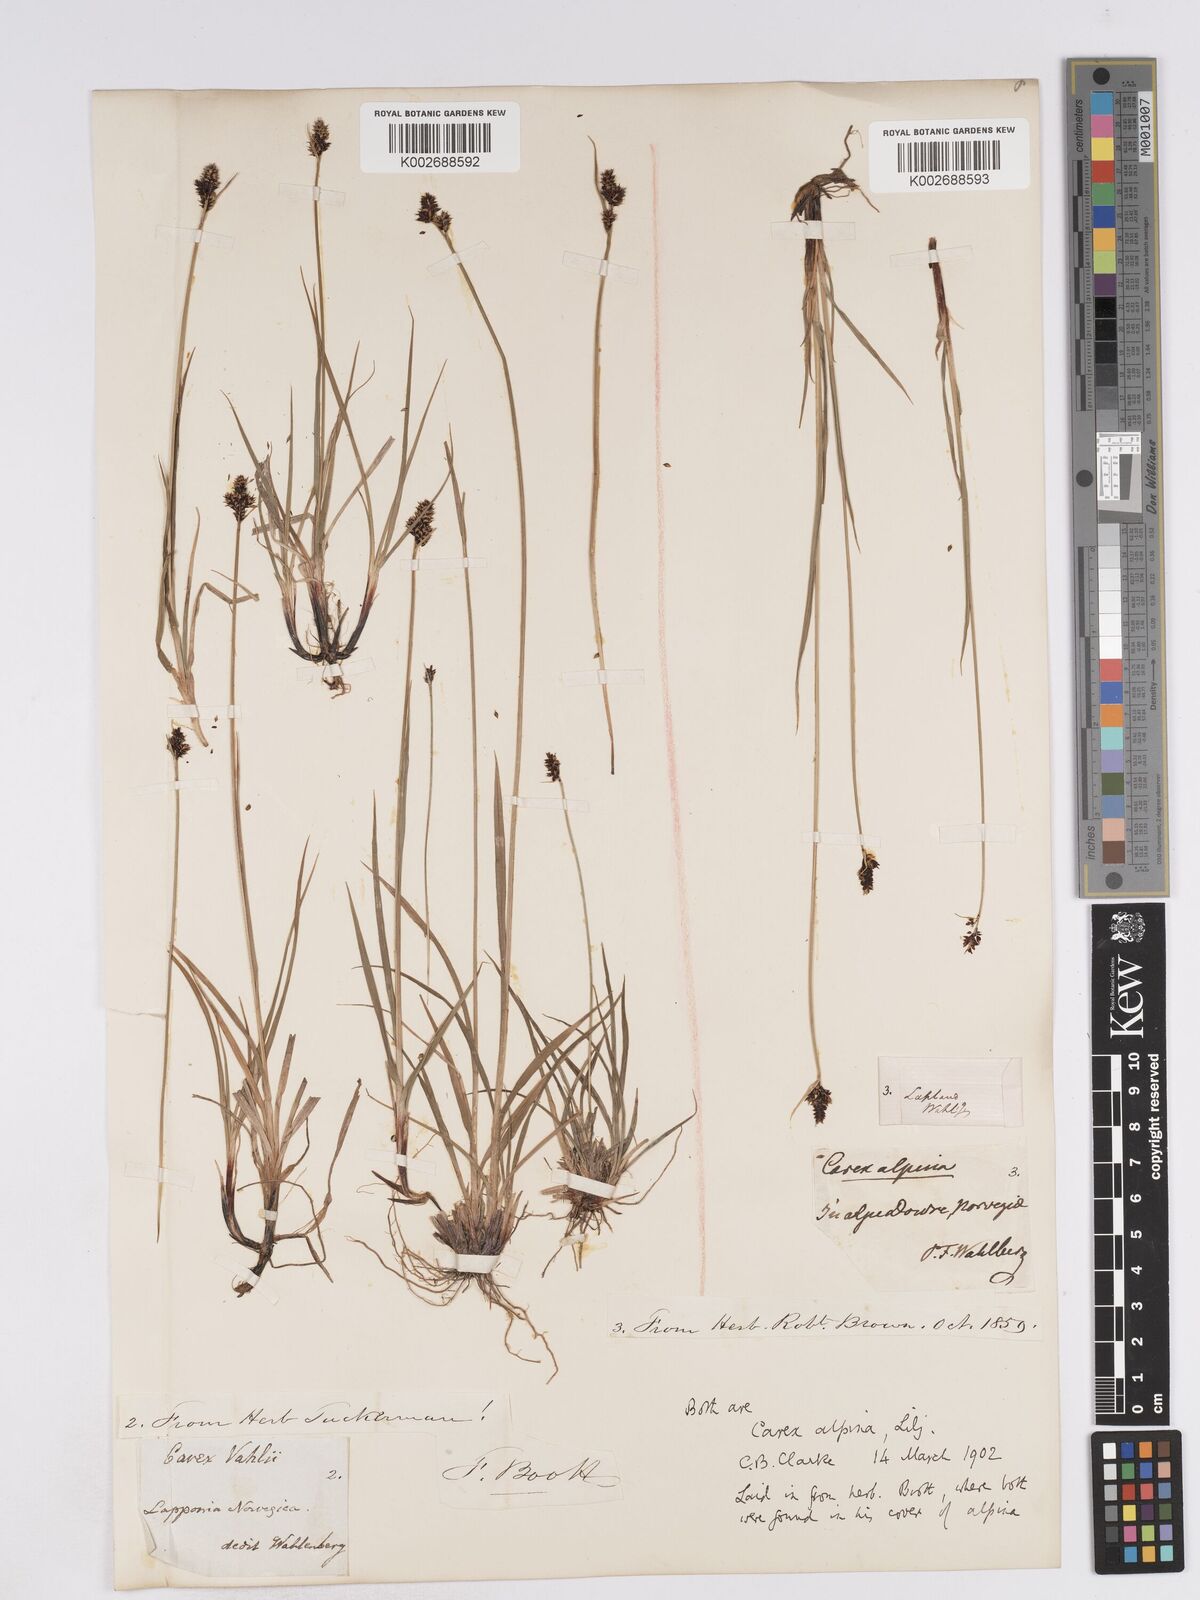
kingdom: Plantae
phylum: Tracheophyta
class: Liliopsida
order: Poales
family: Cyperaceae
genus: Carex
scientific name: Carex norvegica
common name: Close-headed alpine-sedge
